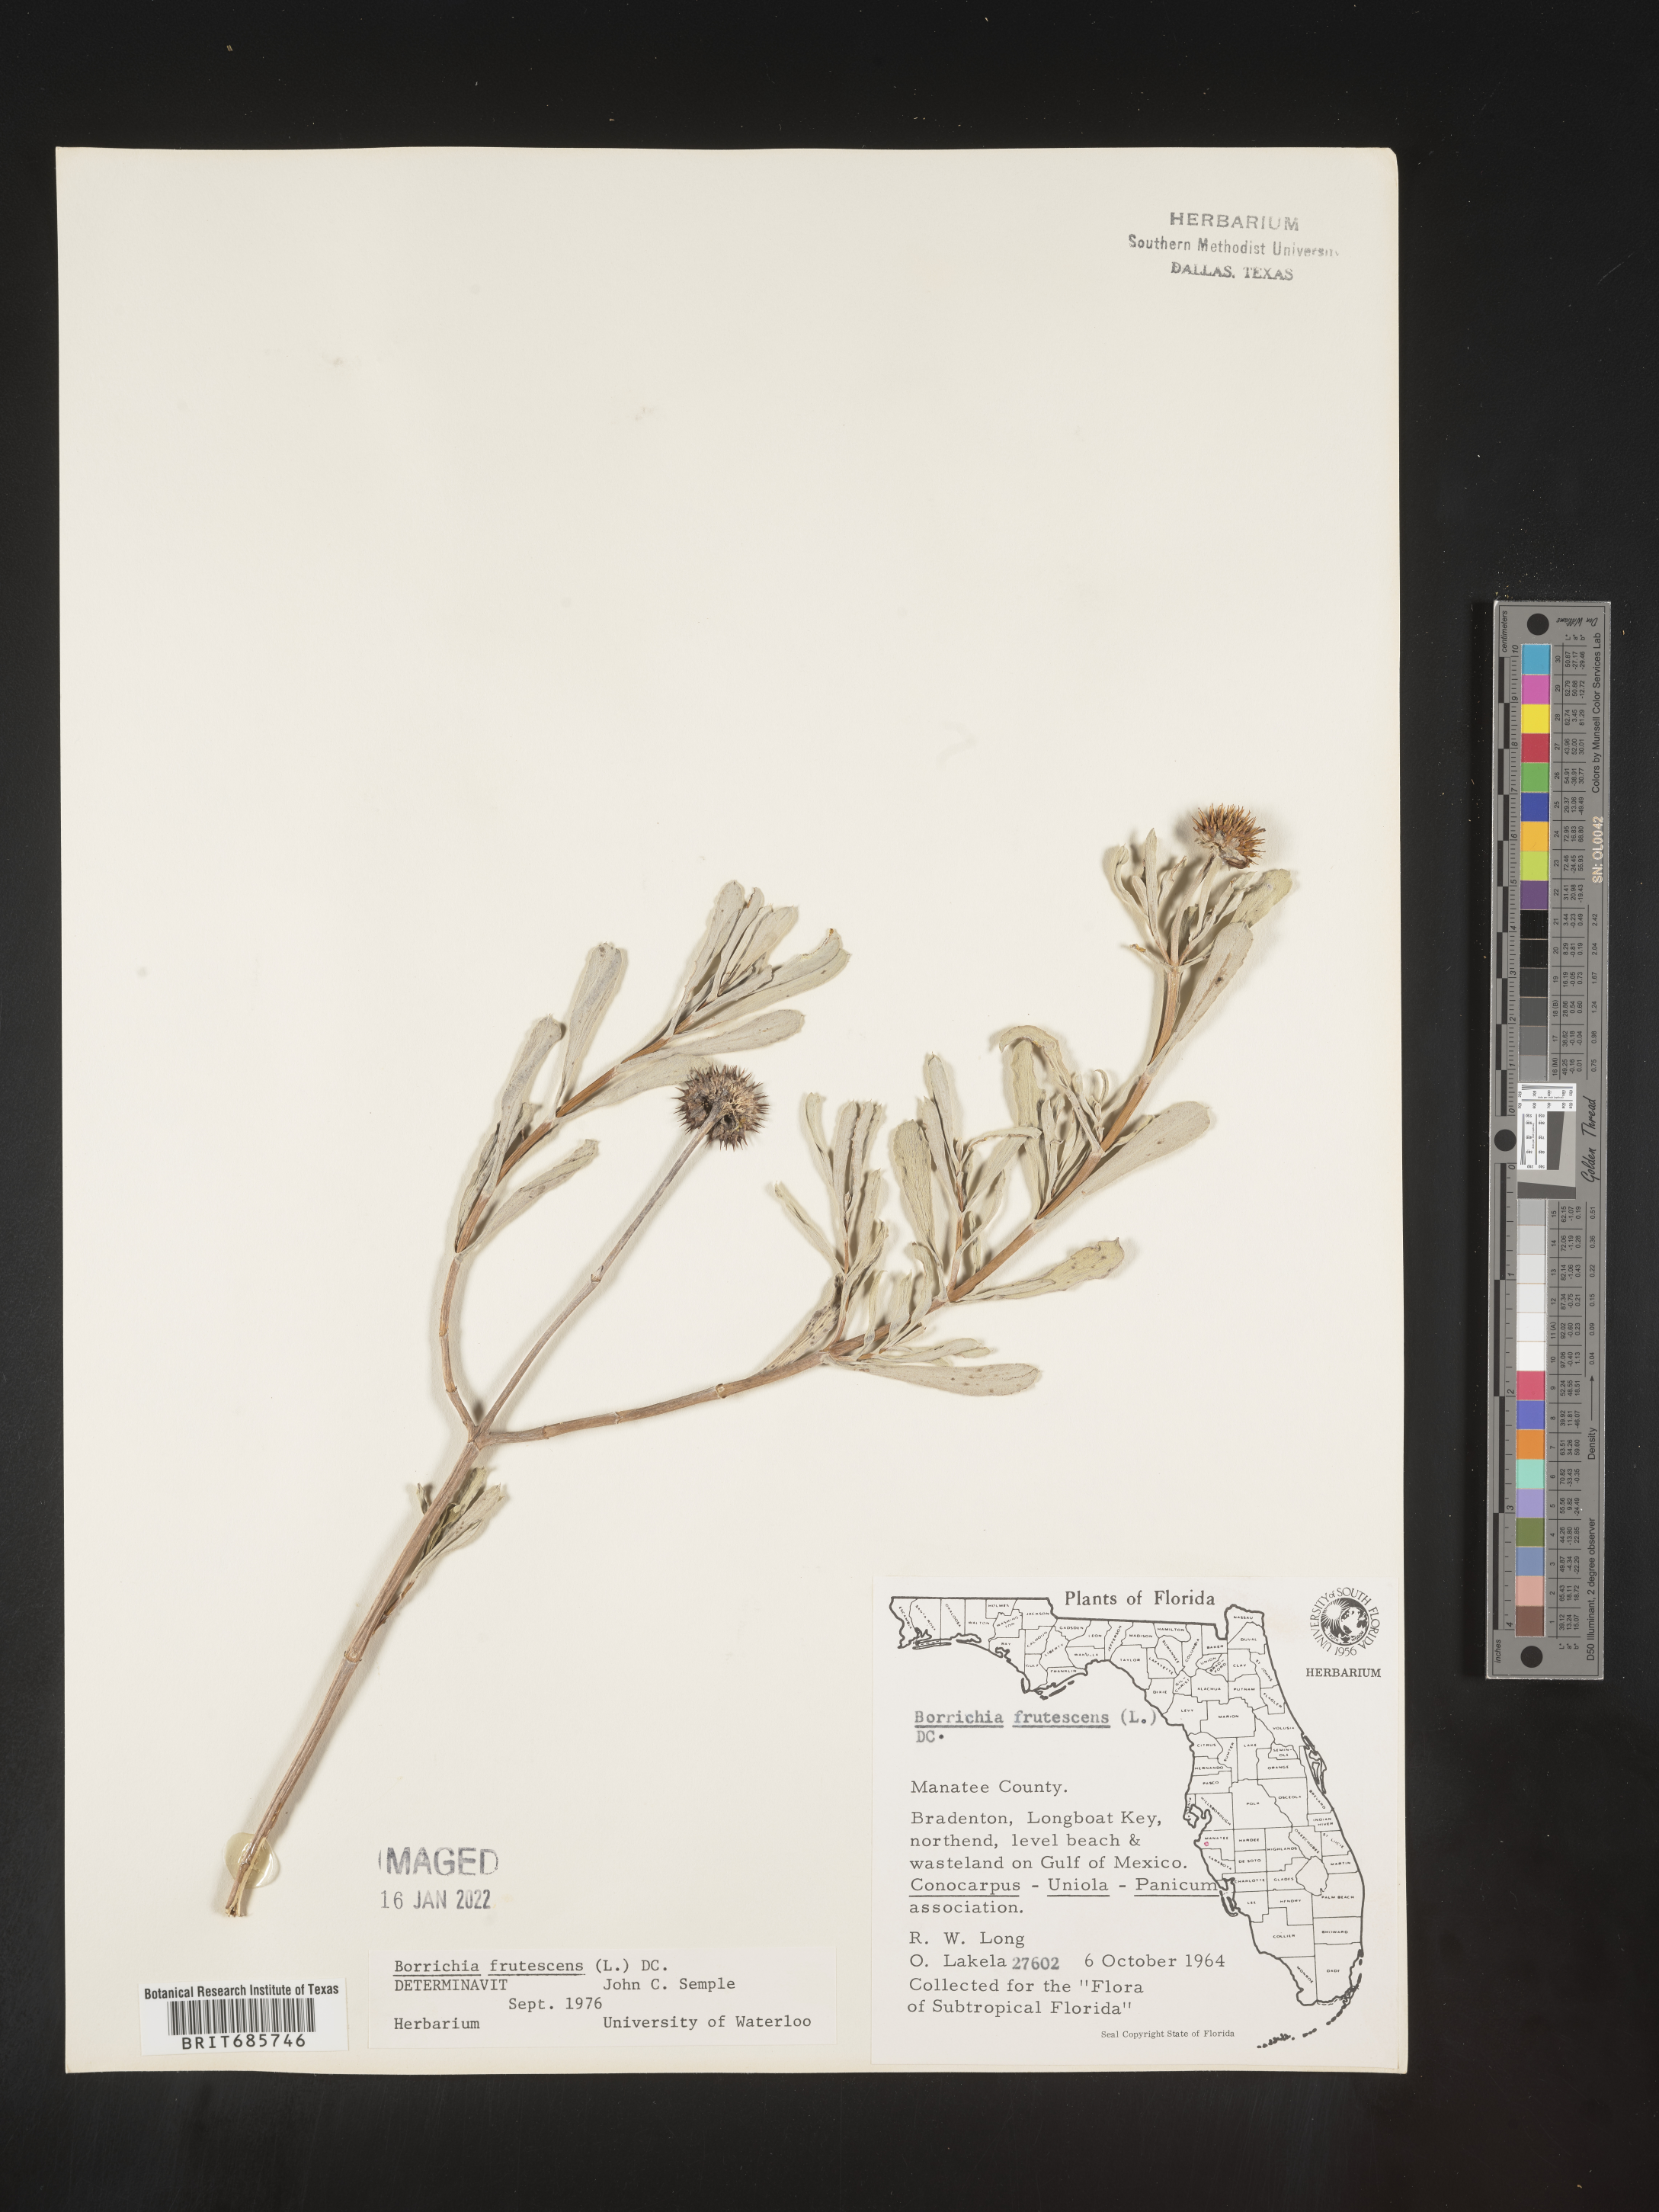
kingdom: Plantae
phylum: Tracheophyta
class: Magnoliopsida
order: Asterales
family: Asteraceae
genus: Borrichia
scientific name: Borrichia frutescens
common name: Sea oxeye
